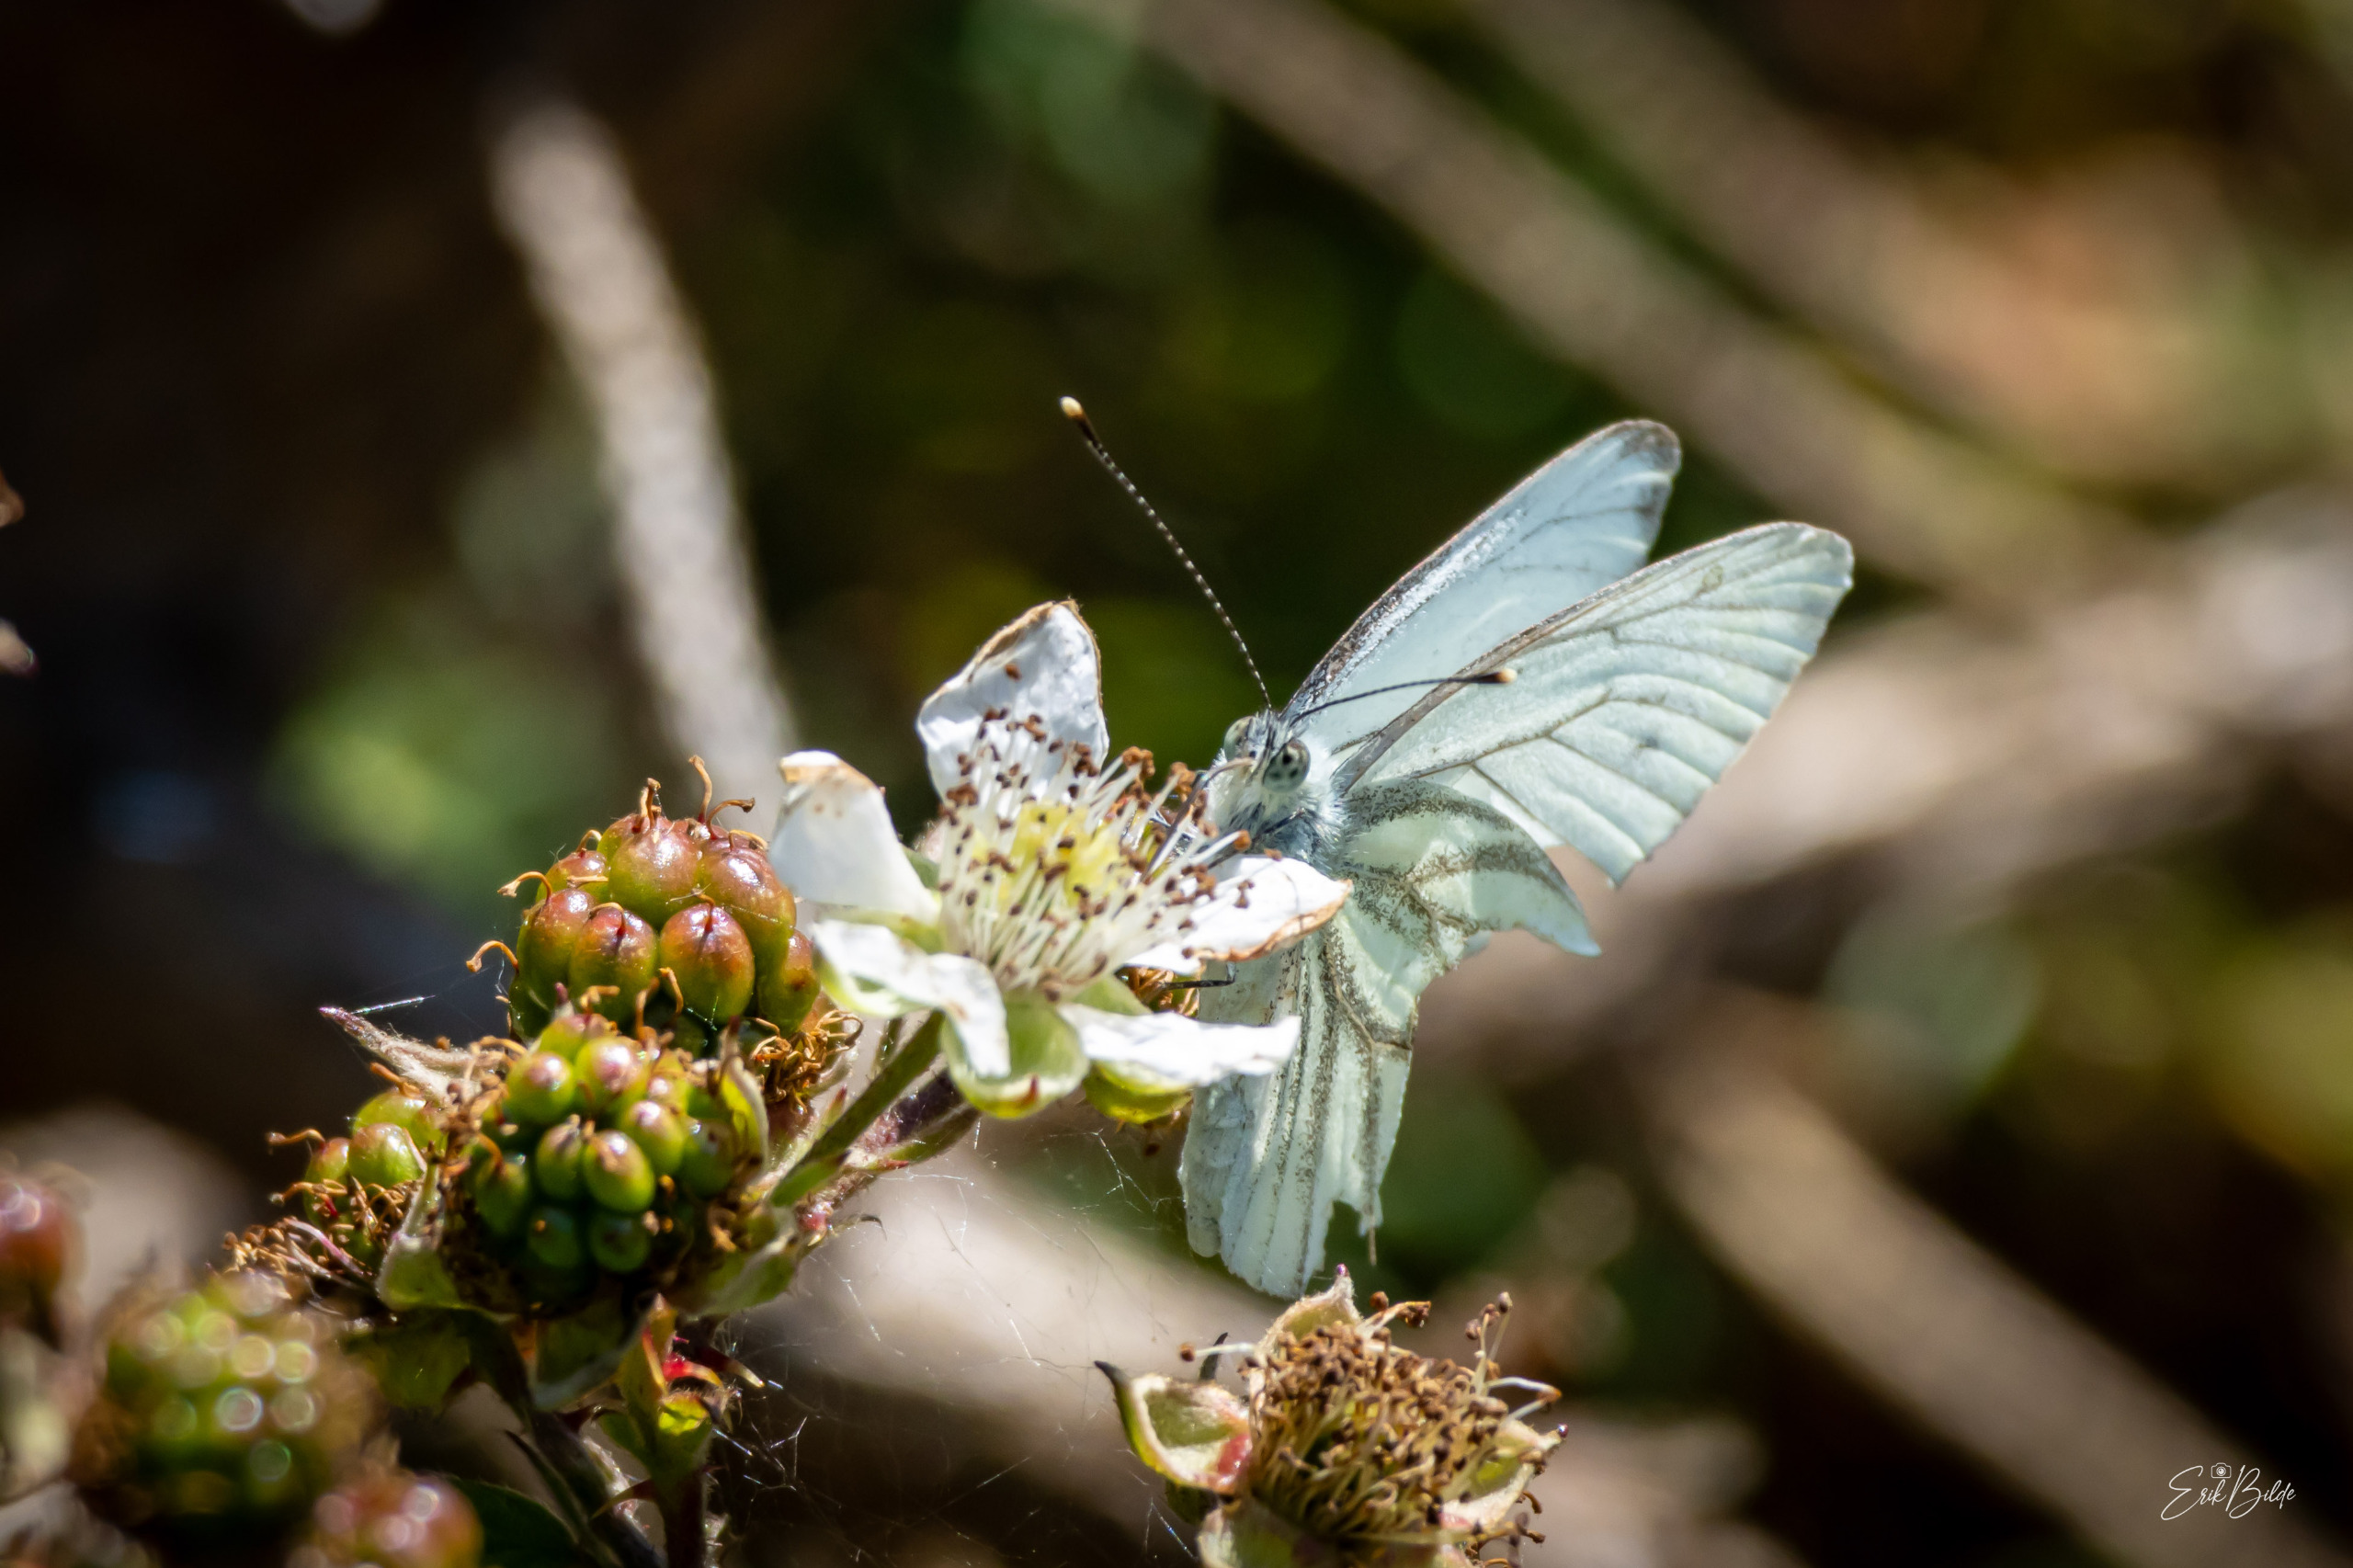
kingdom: Animalia
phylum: Arthropoda
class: Insecta
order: Lepidoptera
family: Pieridae
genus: Pieris
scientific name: Pieris napi
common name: Grønåret kålsommerfugl
